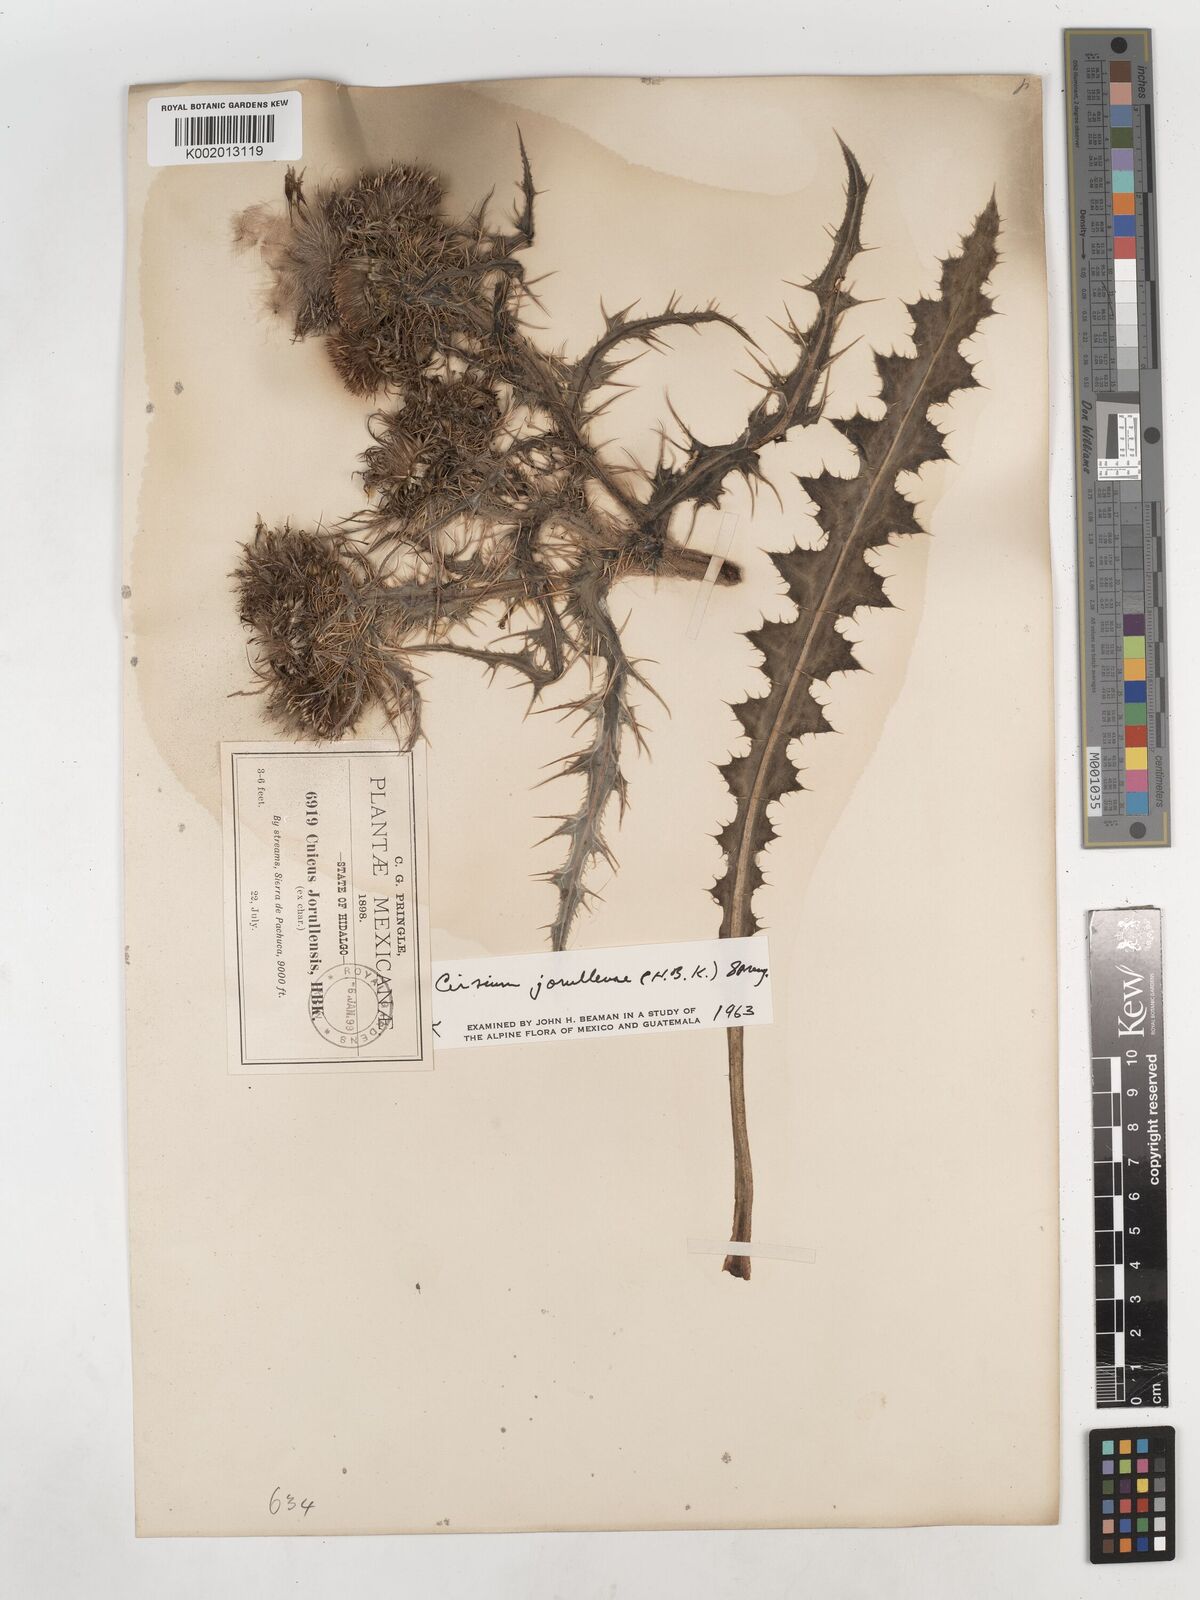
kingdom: Plantae
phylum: Tracheophyta
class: Magnoliopsida
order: Asterales
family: Asteraceae
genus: Cirsium
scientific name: Cirsium jorullense
